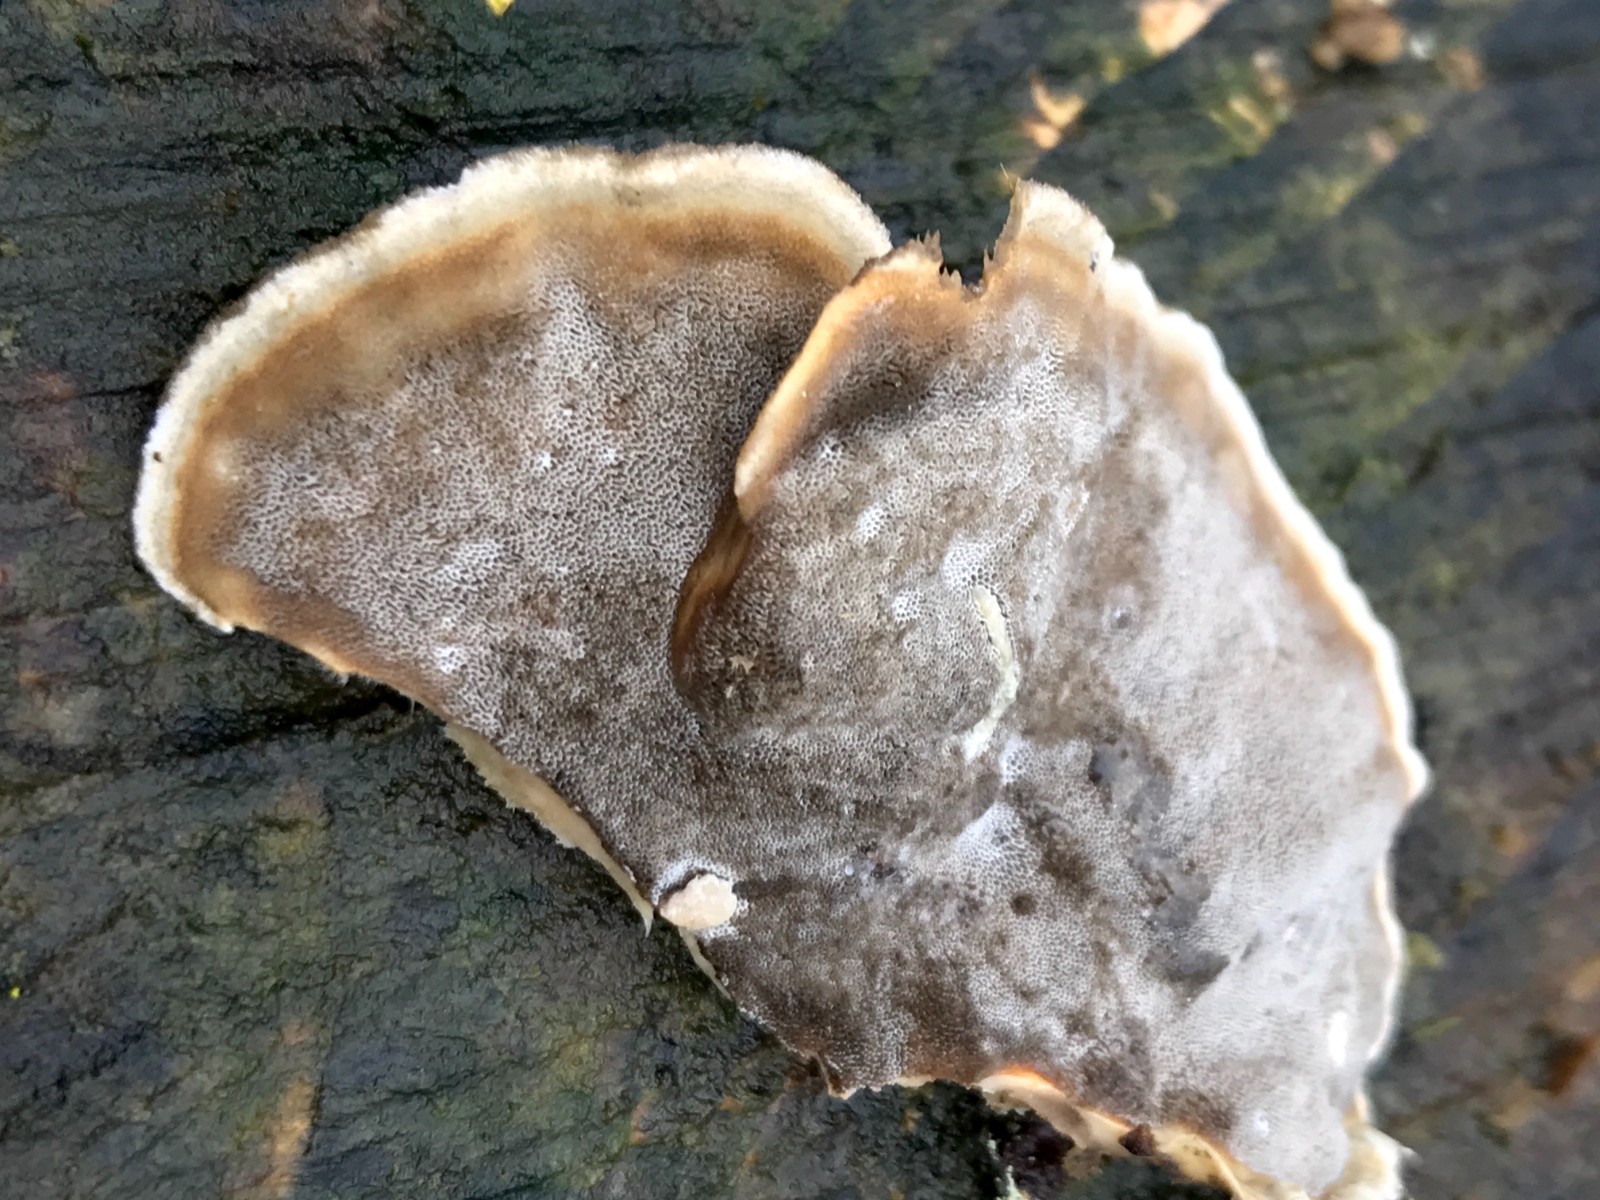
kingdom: Fungi
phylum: Basidiomycota
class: Agaricomycetes
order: Polyporales
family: Phanerochaetaceae
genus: Bjerkandera
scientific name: Bjerkandera adusta
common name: sveden sodporesvamp
